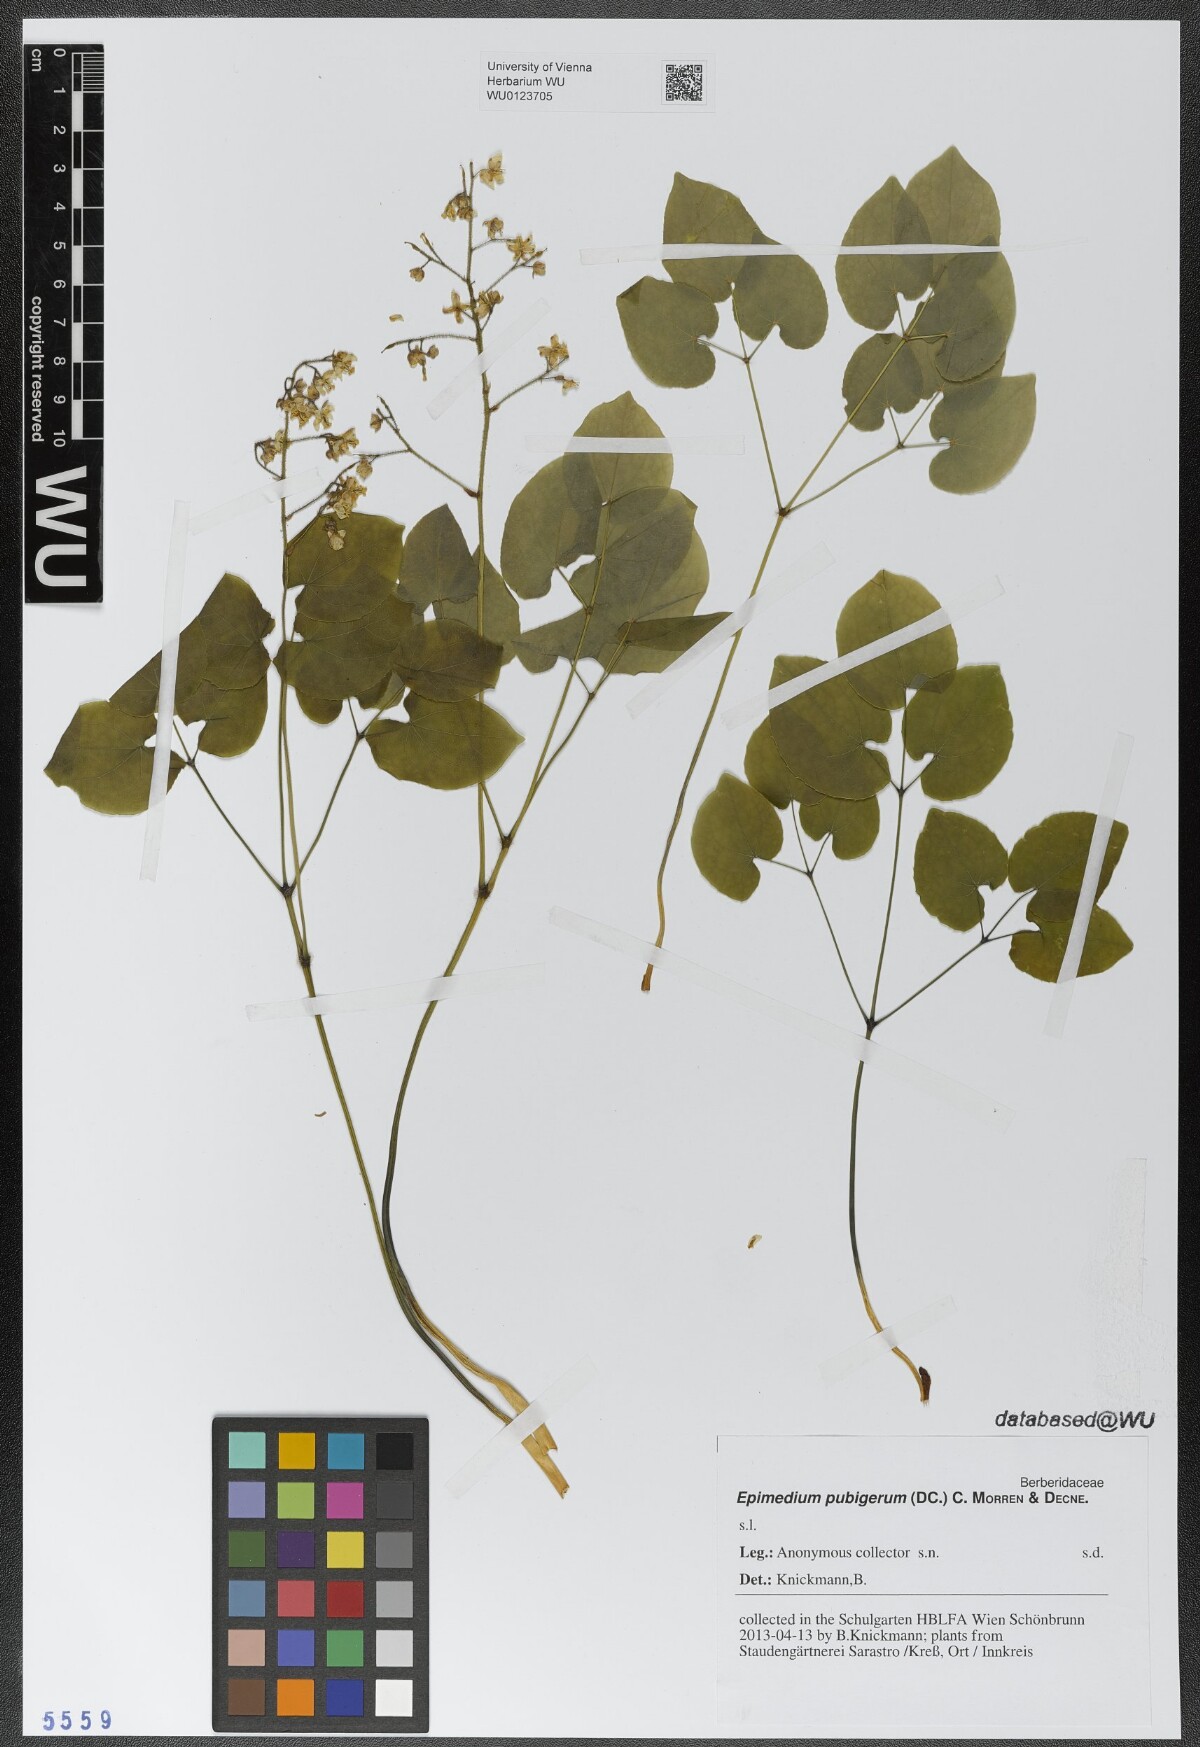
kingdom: Plantae
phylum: Tracheophyta
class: Magnoliopsida
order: Ranunculales
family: Berberidaceae
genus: Epimedium
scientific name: Epimedium pubigerum
